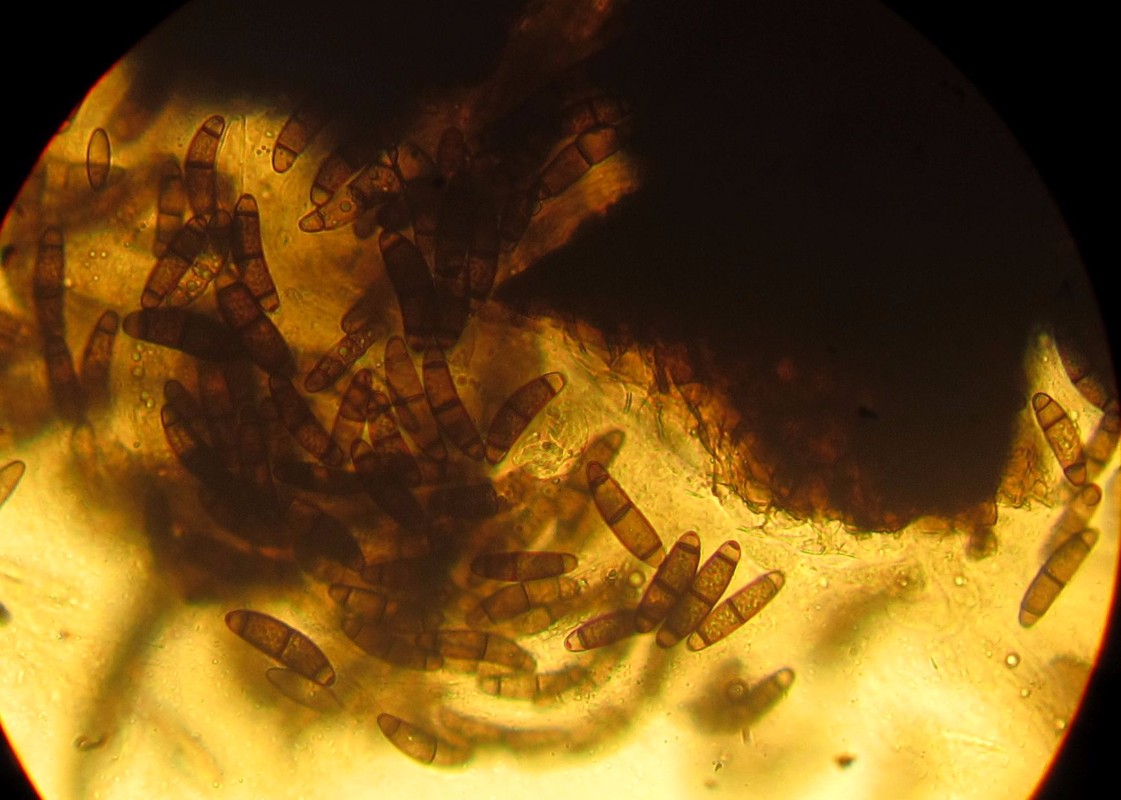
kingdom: Fungi
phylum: Ascomycota
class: Sordariomycetes
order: Coronophorales
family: Chaetosphaerellaceae
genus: Chaetosphaerella
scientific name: Chaetosphaerella phaeostroma
